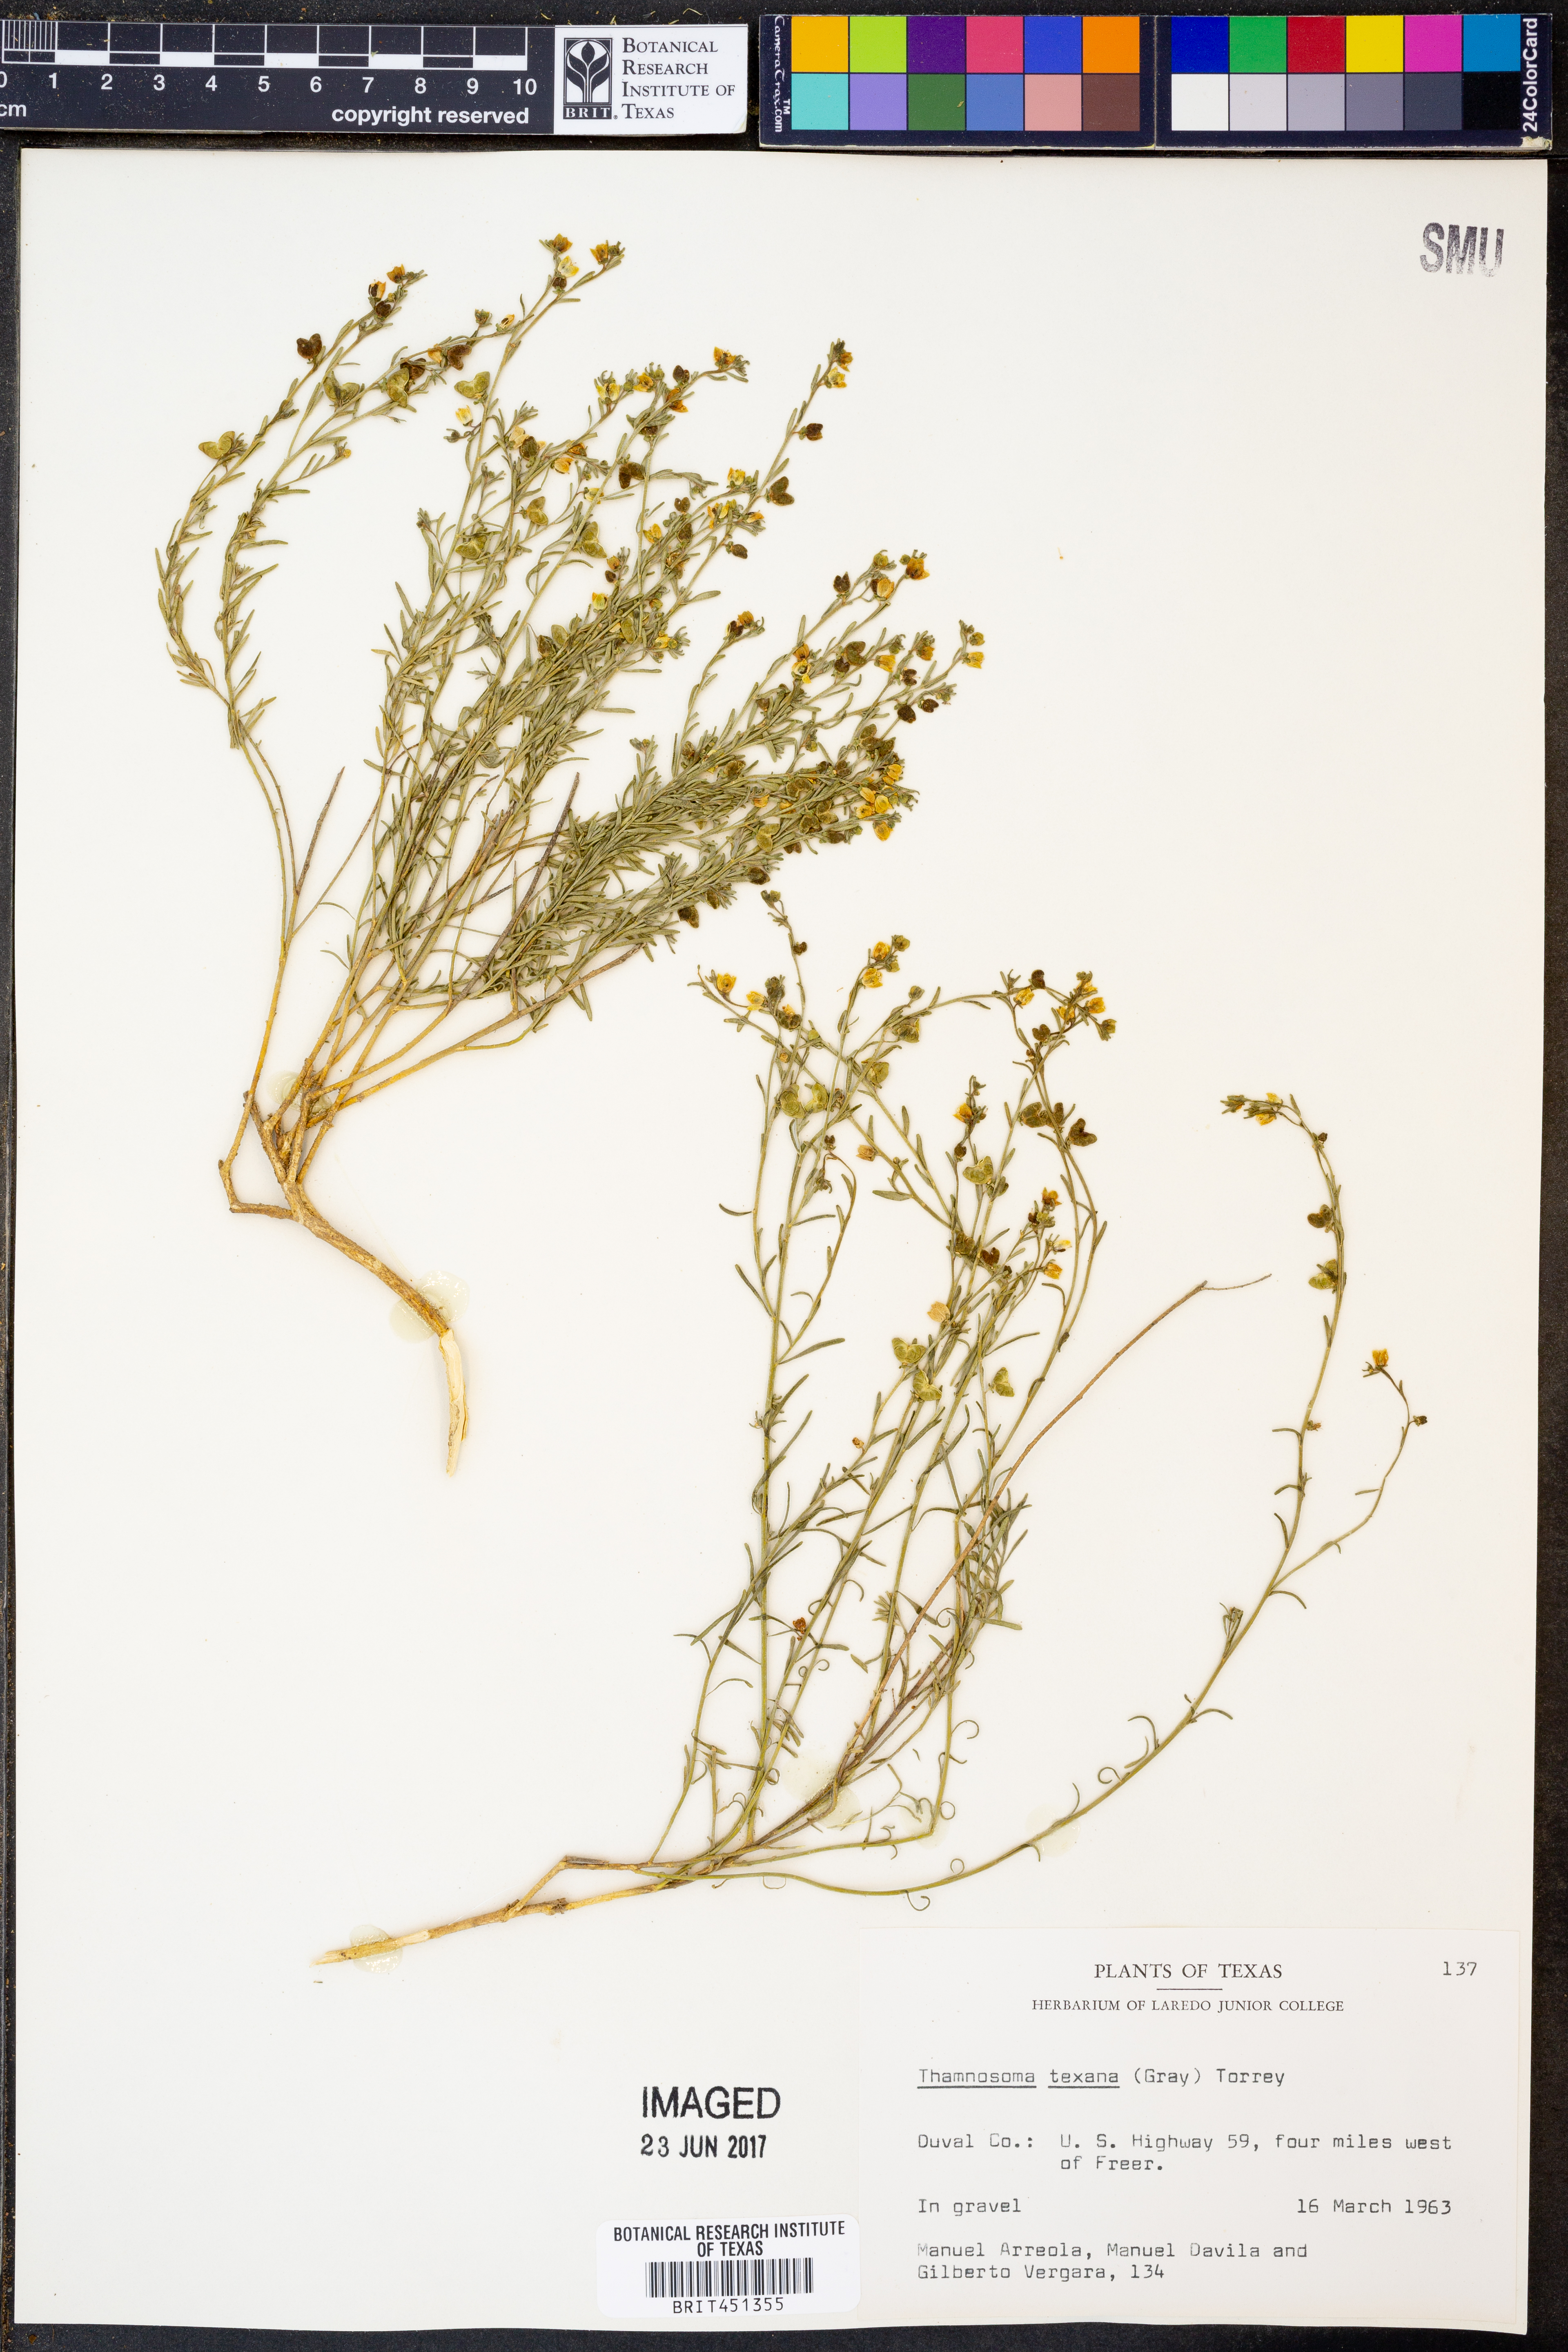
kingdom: Plantae
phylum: Tracheophyta
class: Magnoliopsida
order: Sapindales
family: Rutaceae
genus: Thamnosma
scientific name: Thamnosma texana
